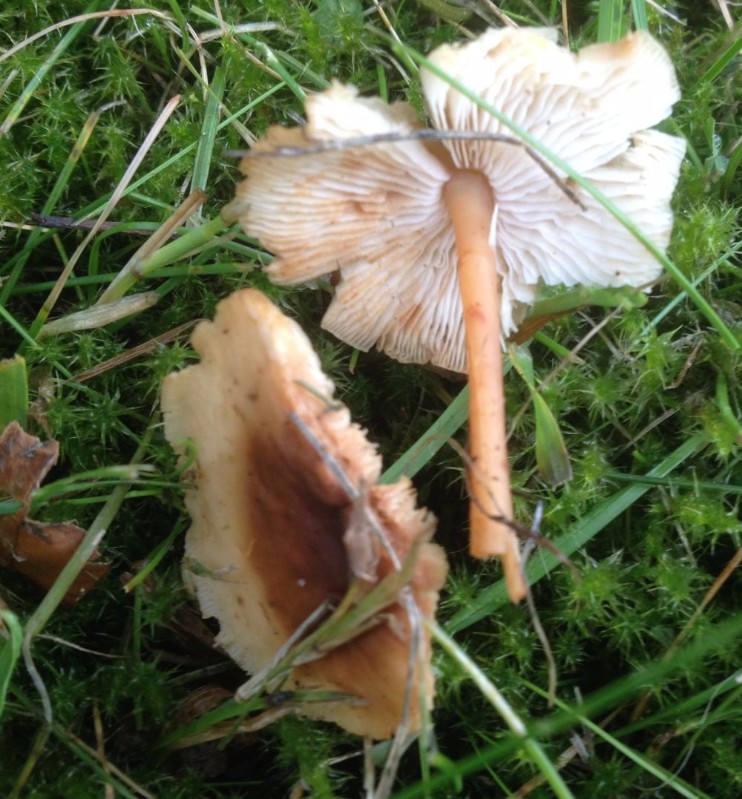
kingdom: Fungi
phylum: Basidiomycota
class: Agaricomycetes
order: Agaricales
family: Omphalotaceae
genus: Gymnopus
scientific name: Gymnopus
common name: fladhat
